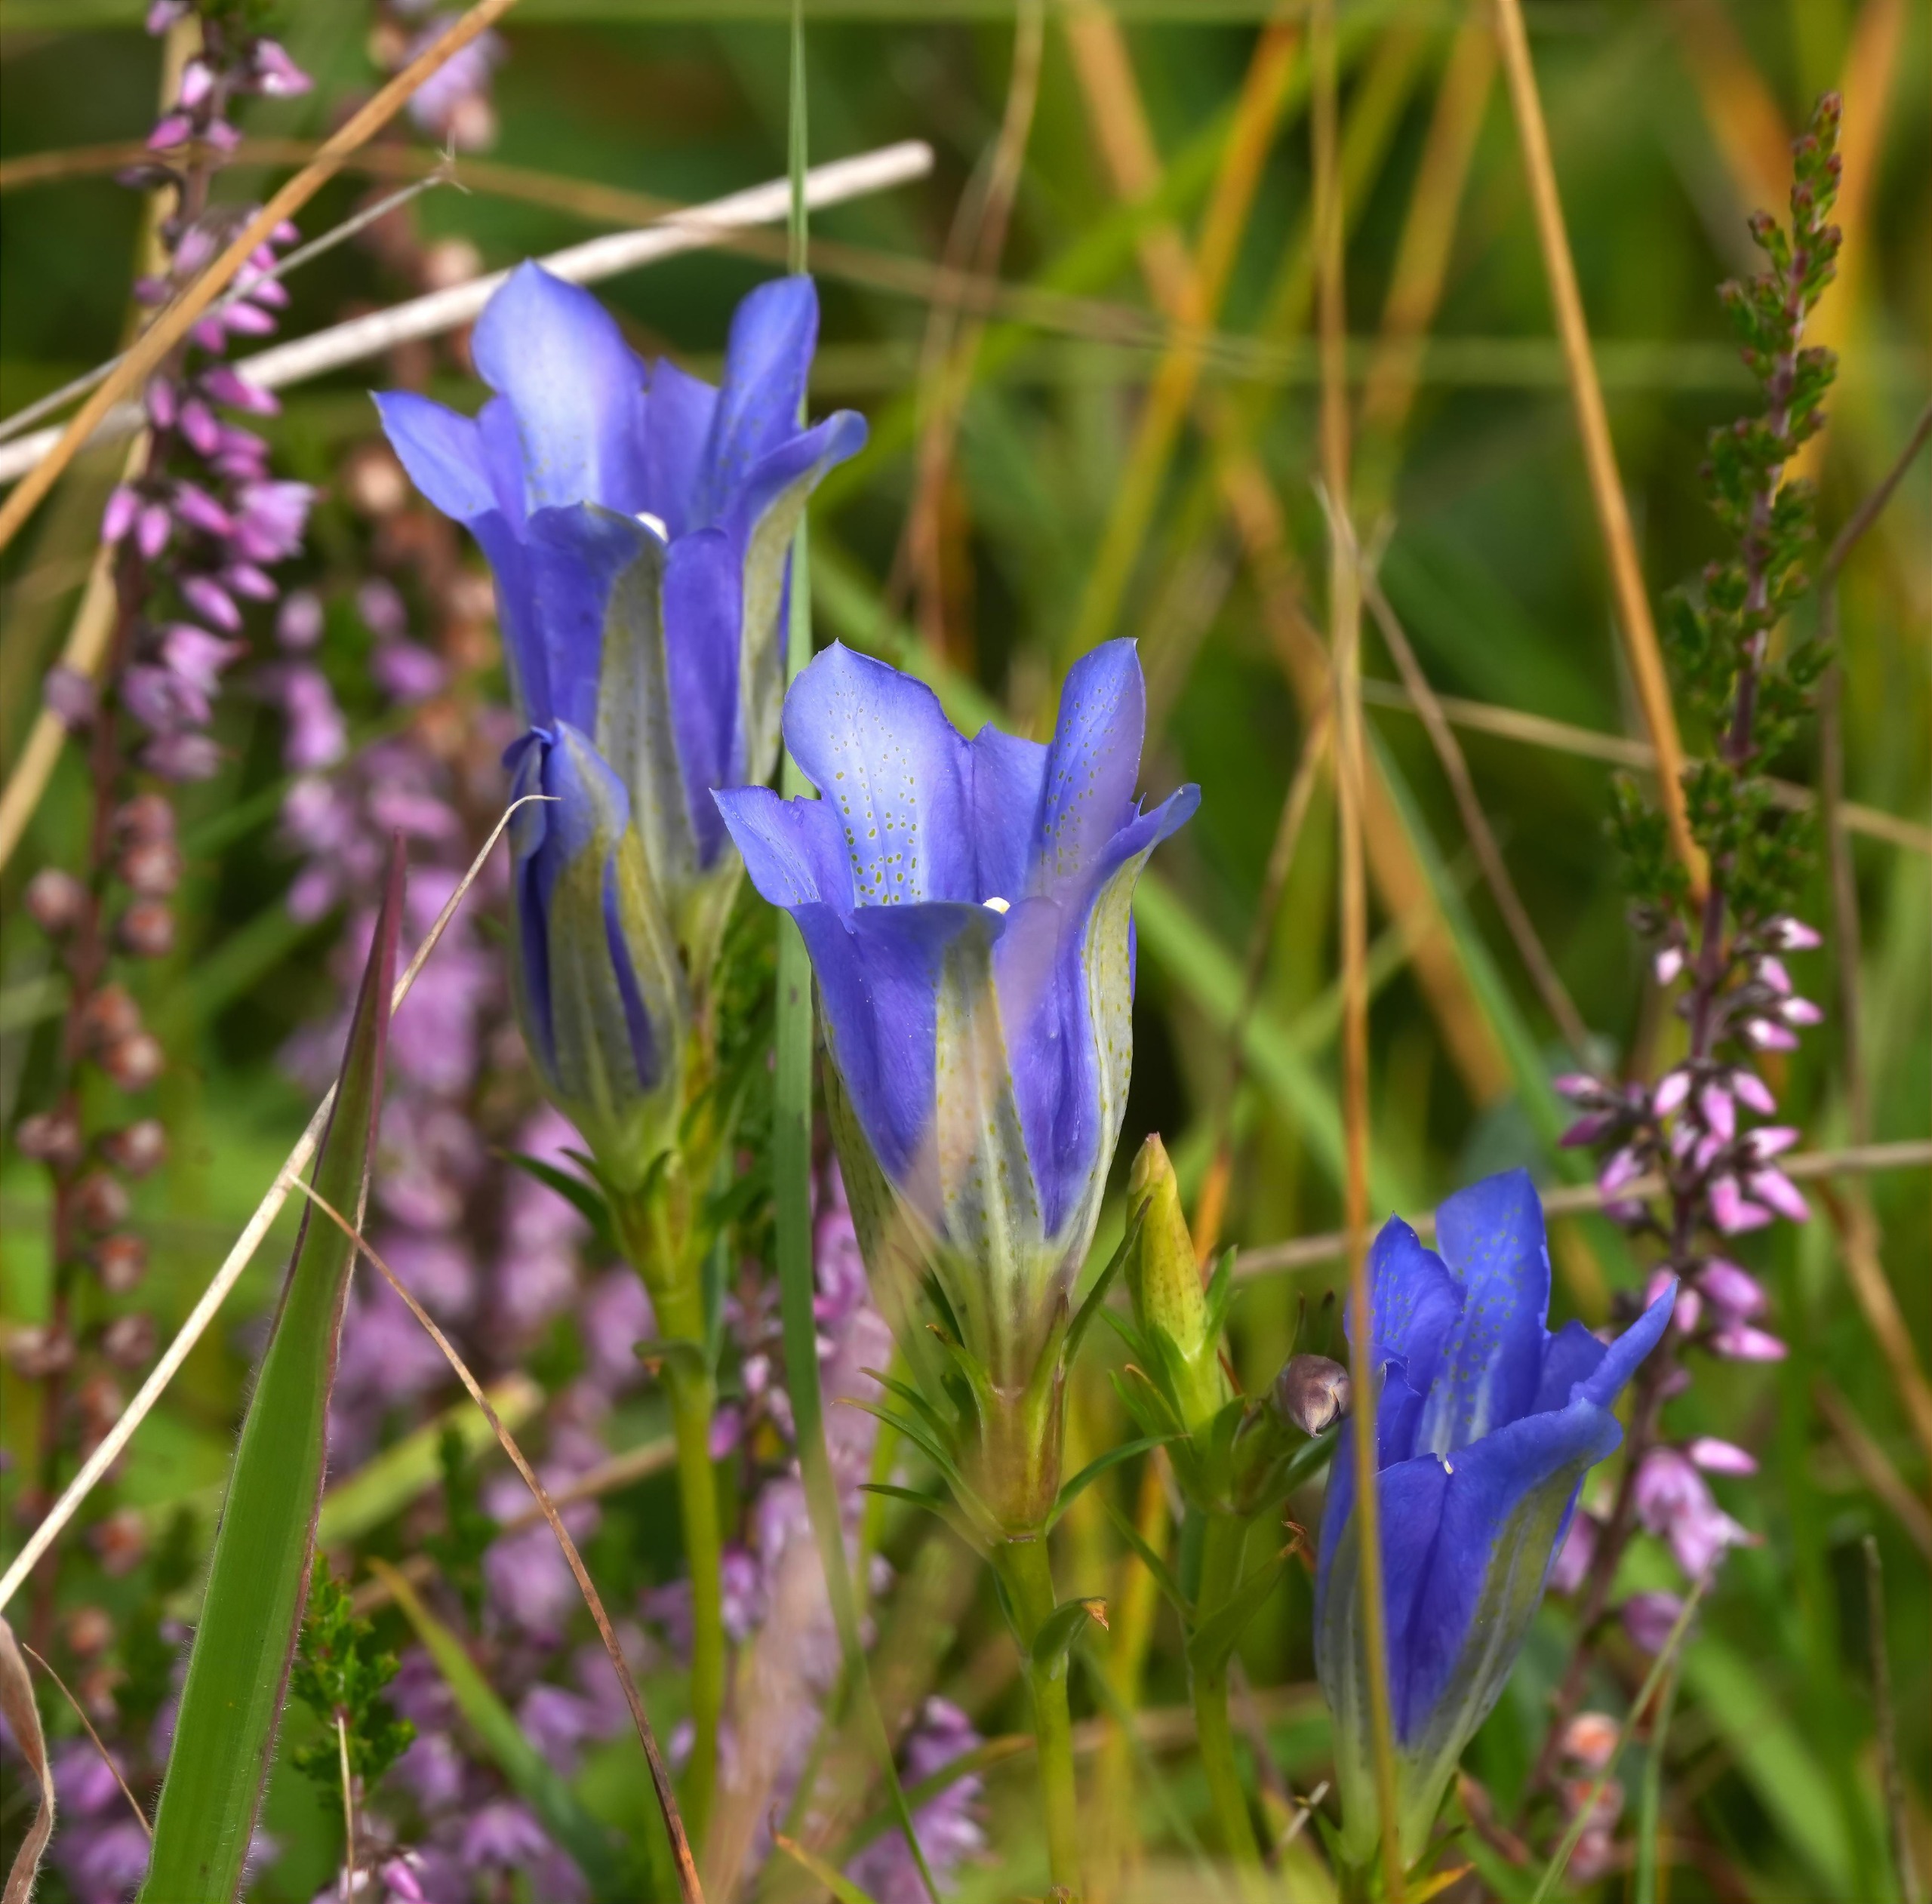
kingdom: Plantae
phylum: Tracheophyta
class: Magnoliopsida
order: Gentianales
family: Gentianaceae
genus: Gentiana
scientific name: Gentiana pneumonanthe
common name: Klokke-ensian
